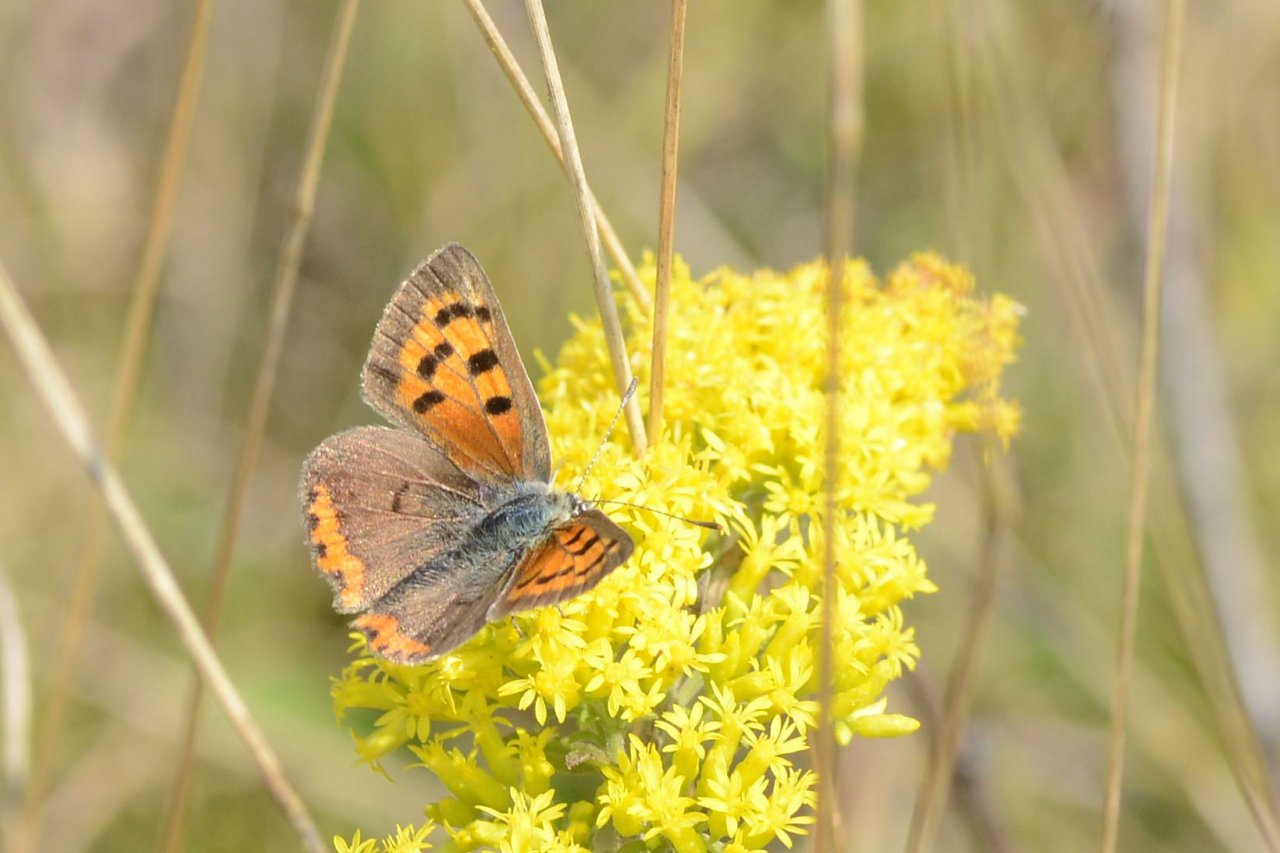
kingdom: Animalia
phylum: Arthropoda
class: Insecta
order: Lepidoptera
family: Lycaenidae
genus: Lycaena
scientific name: Lycaena phlaeas
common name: American Copper
